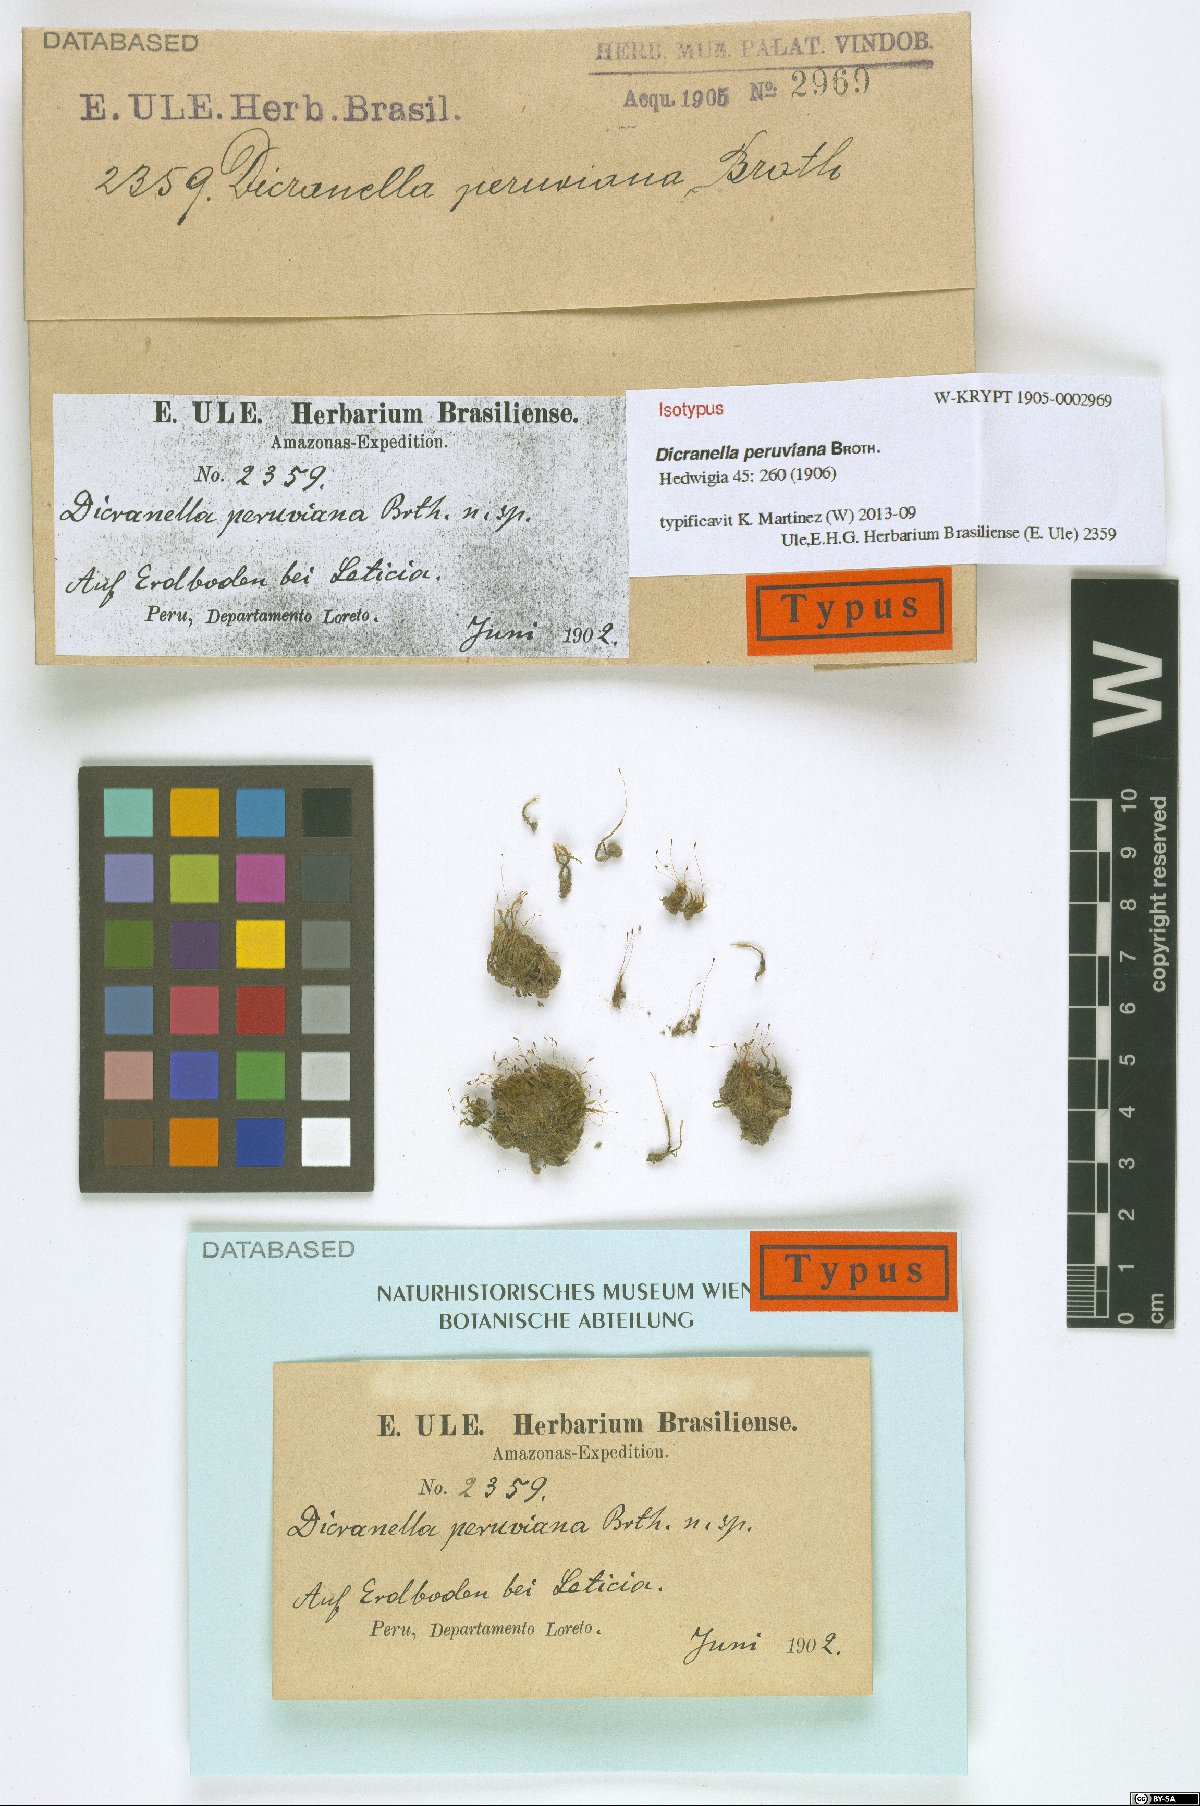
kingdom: Plantae
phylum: Bryophyta
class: Bryopsida
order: Dicranales
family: Dicranellaceae
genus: Dicranella
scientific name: Dicranella hilariana
